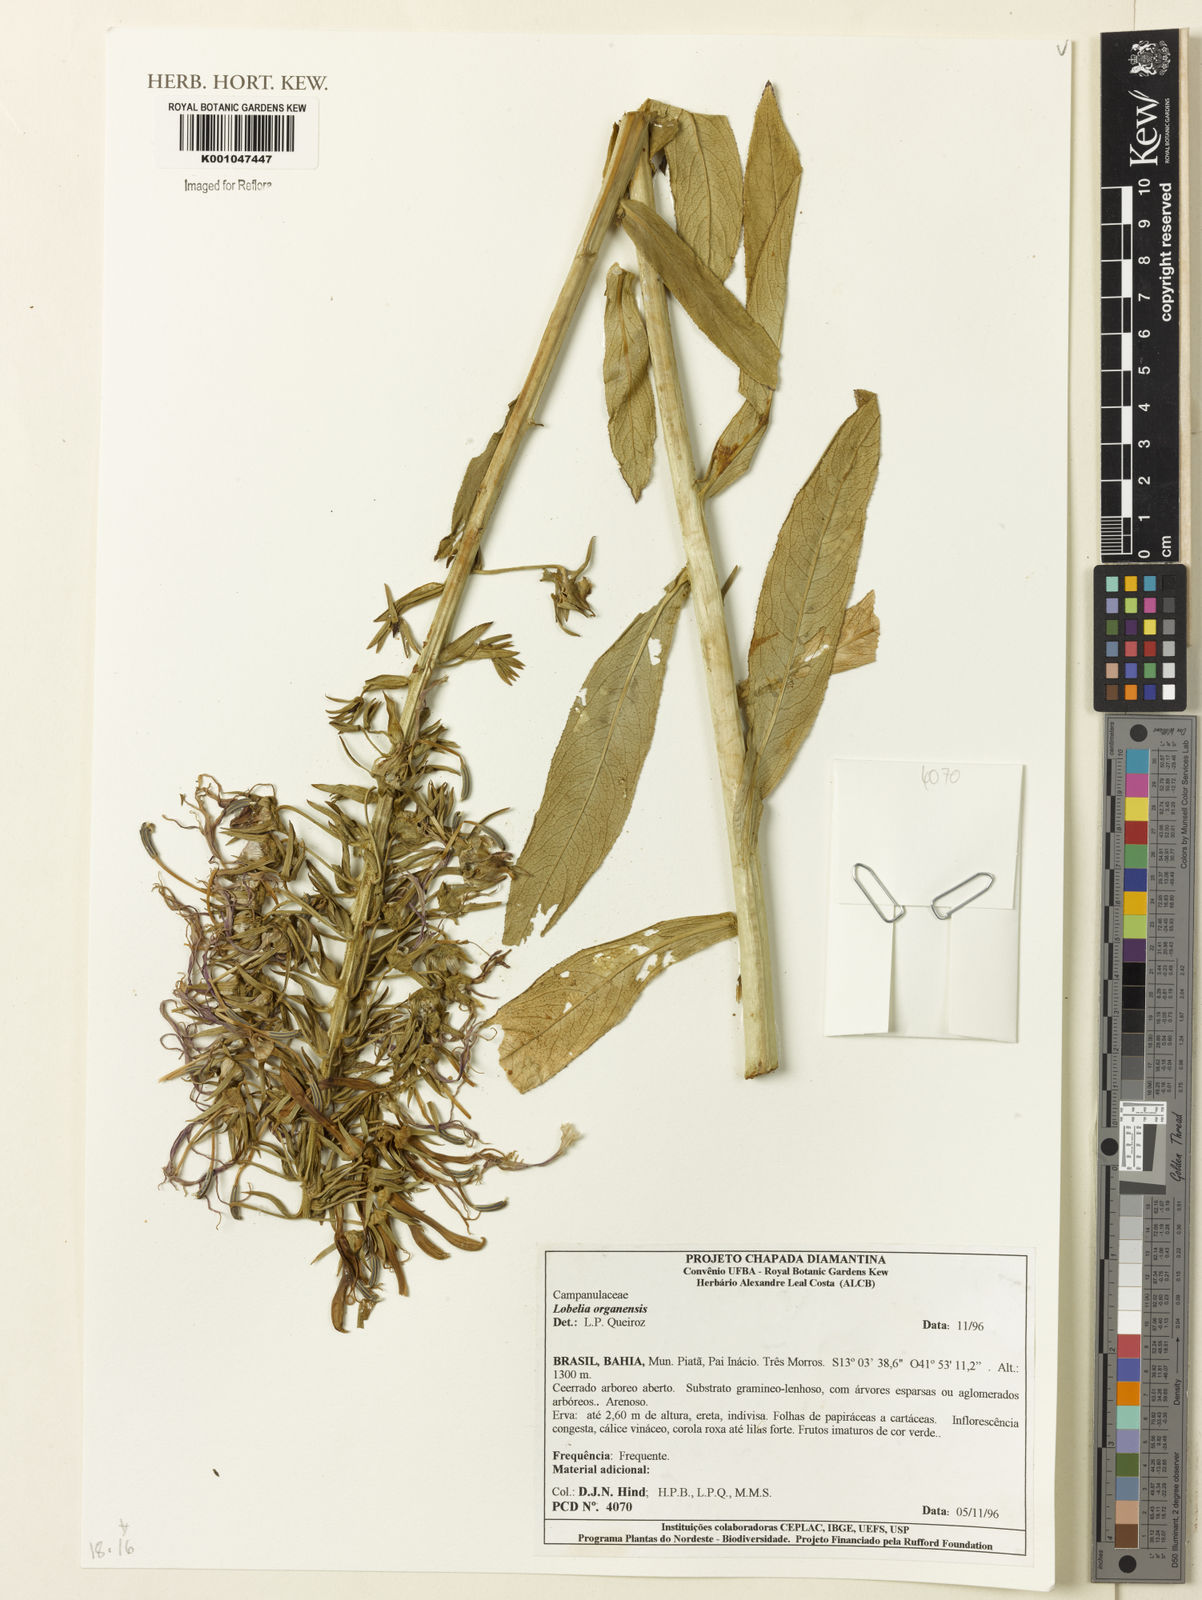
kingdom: Plantae
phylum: Tracheophyta
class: Magnoliopsida
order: Asterales
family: Campanulaceae
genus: Lobelia
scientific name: Lobelia organensis
